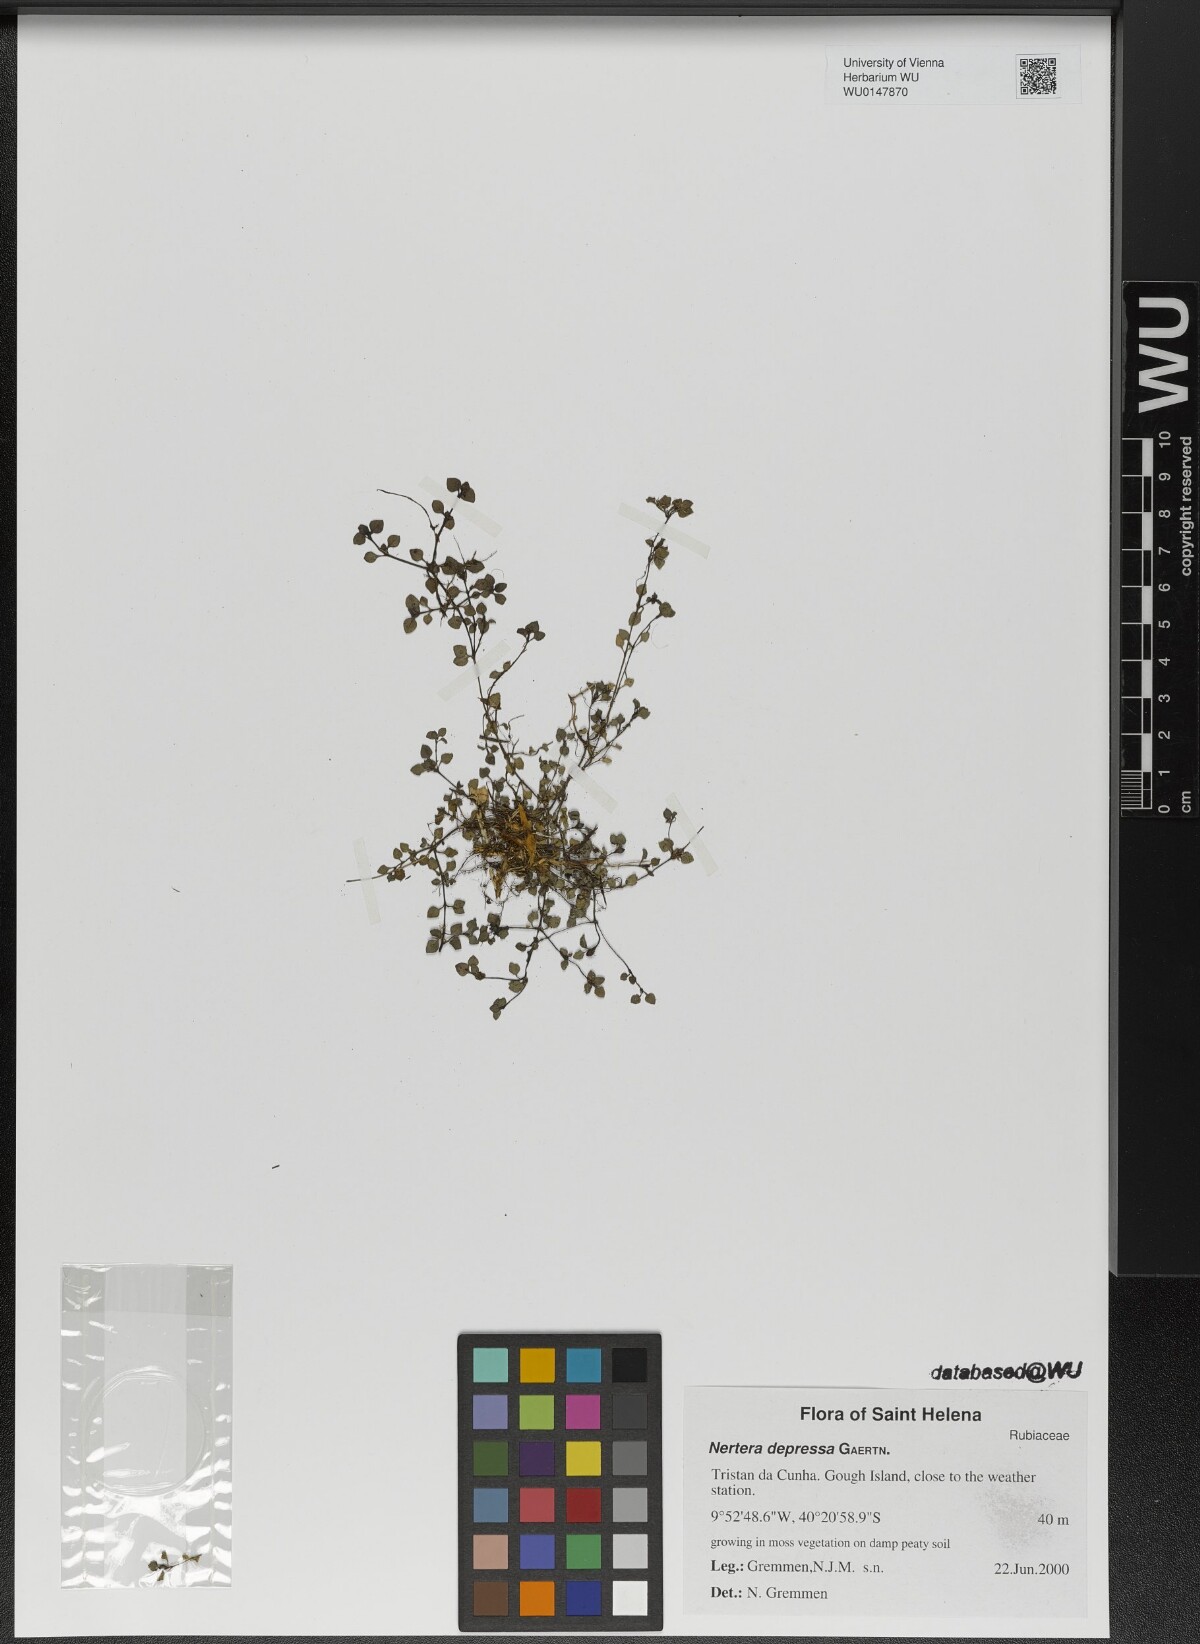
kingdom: Plantae
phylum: Tracheophyta
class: Magnoliopsida
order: Gentianales
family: Rubiaceae
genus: Nertera
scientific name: Nertera granadensis
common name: Beadplant
